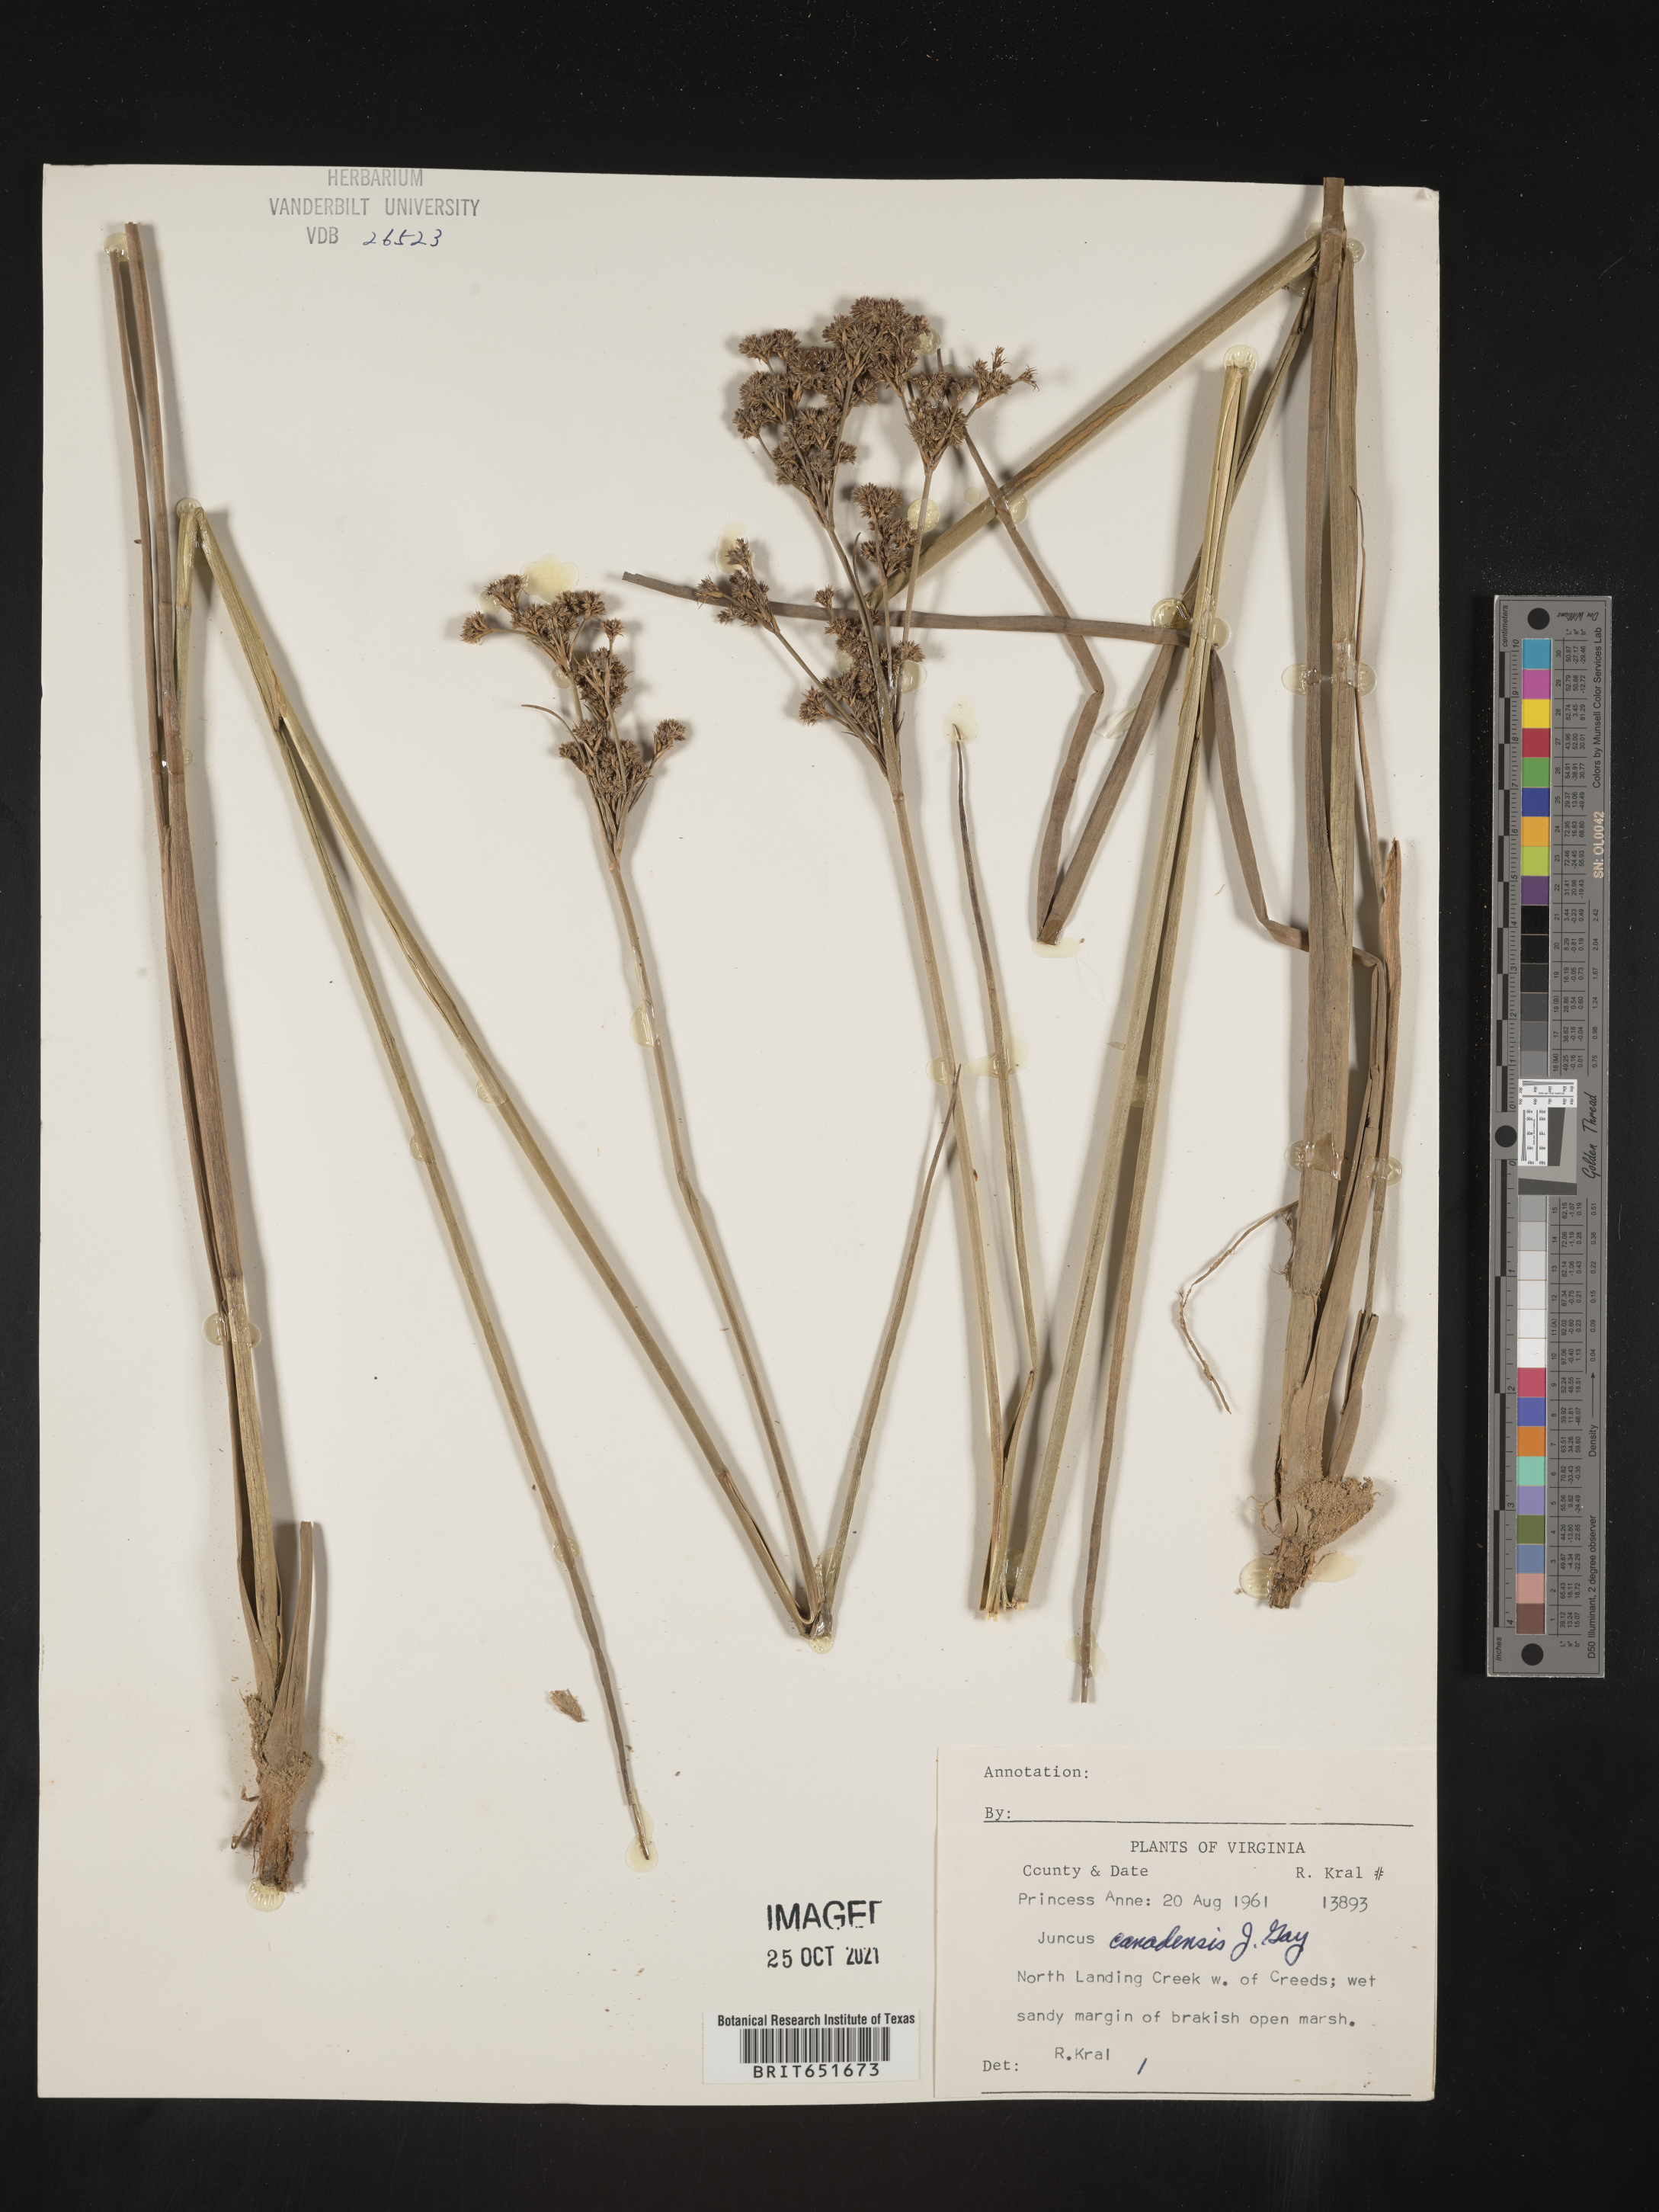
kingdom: Plantae
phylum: Tracheophyta
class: Liliopsida
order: Poales
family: Juncaceae
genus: Juncus
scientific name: Juncus canadensis
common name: Canada rush
